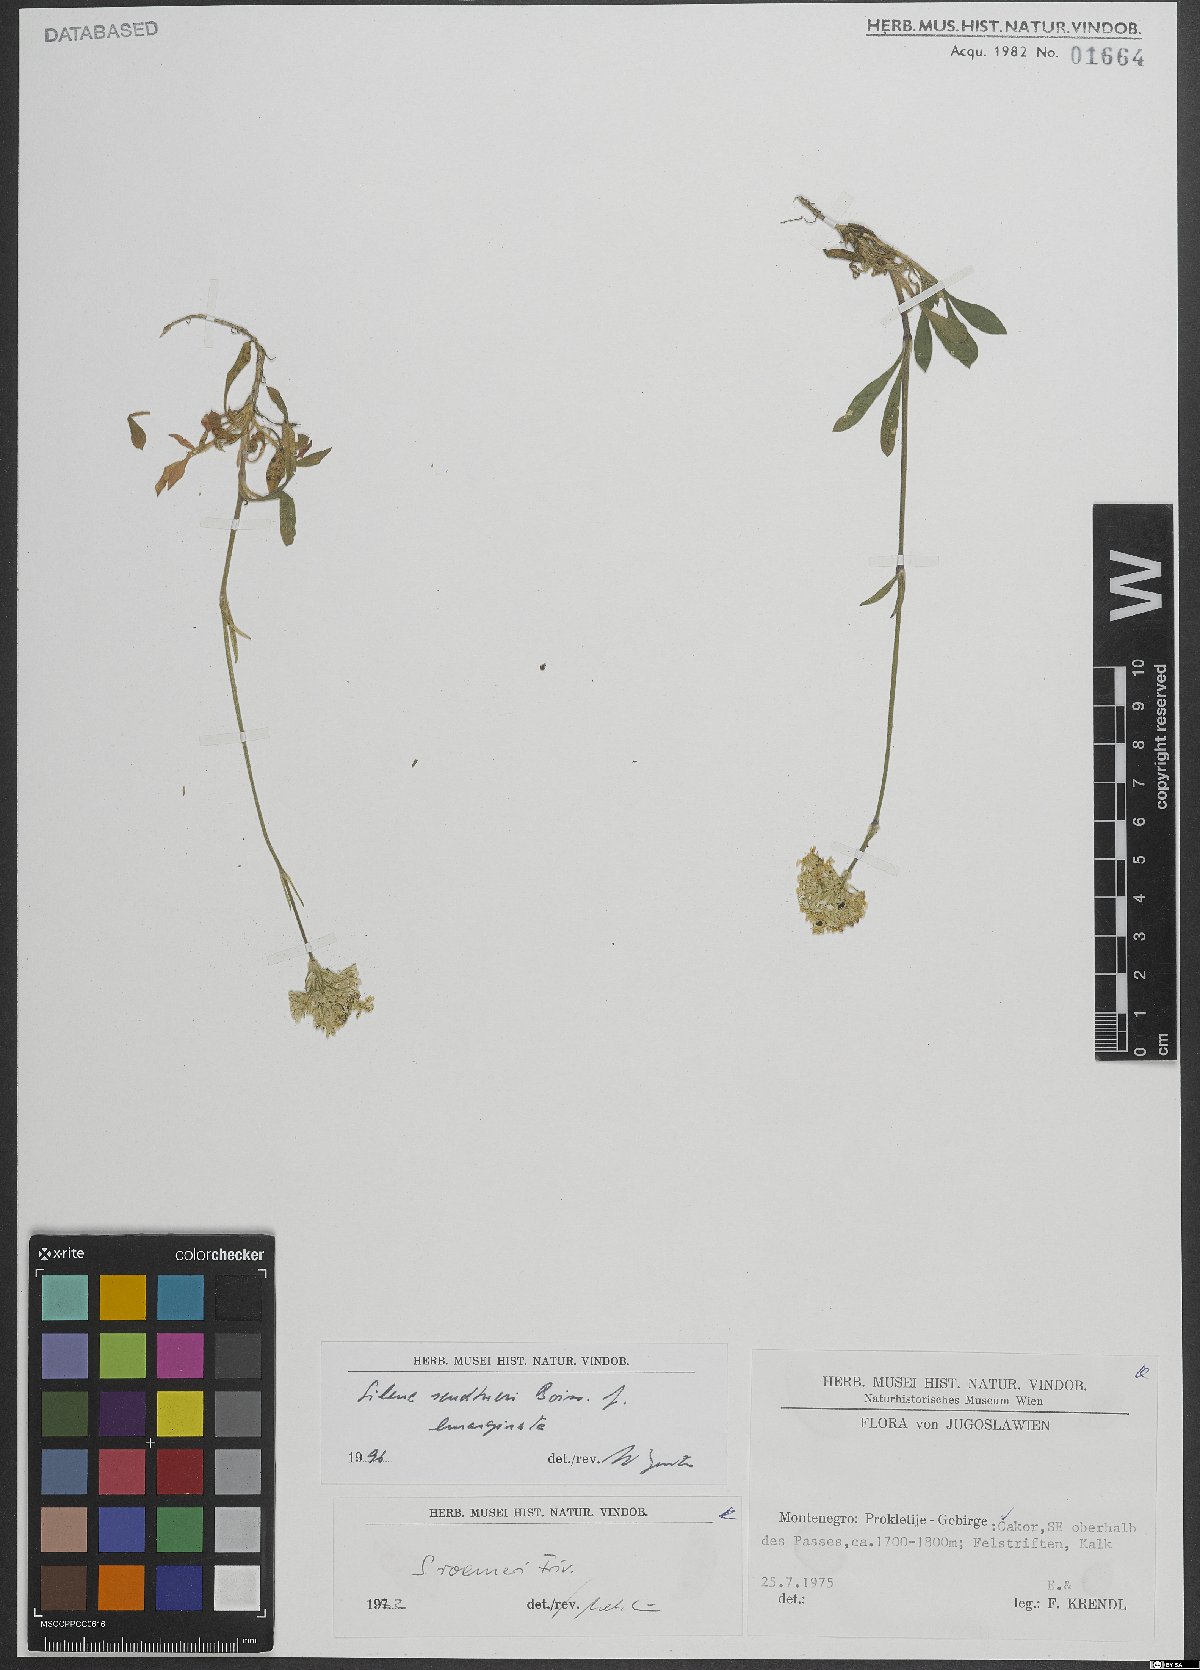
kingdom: Plantae
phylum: Tracheophyta
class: Magnoliopsida
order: Caryophyllales
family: Caryophyllaceae
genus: Silene
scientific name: Silene sendtneri
